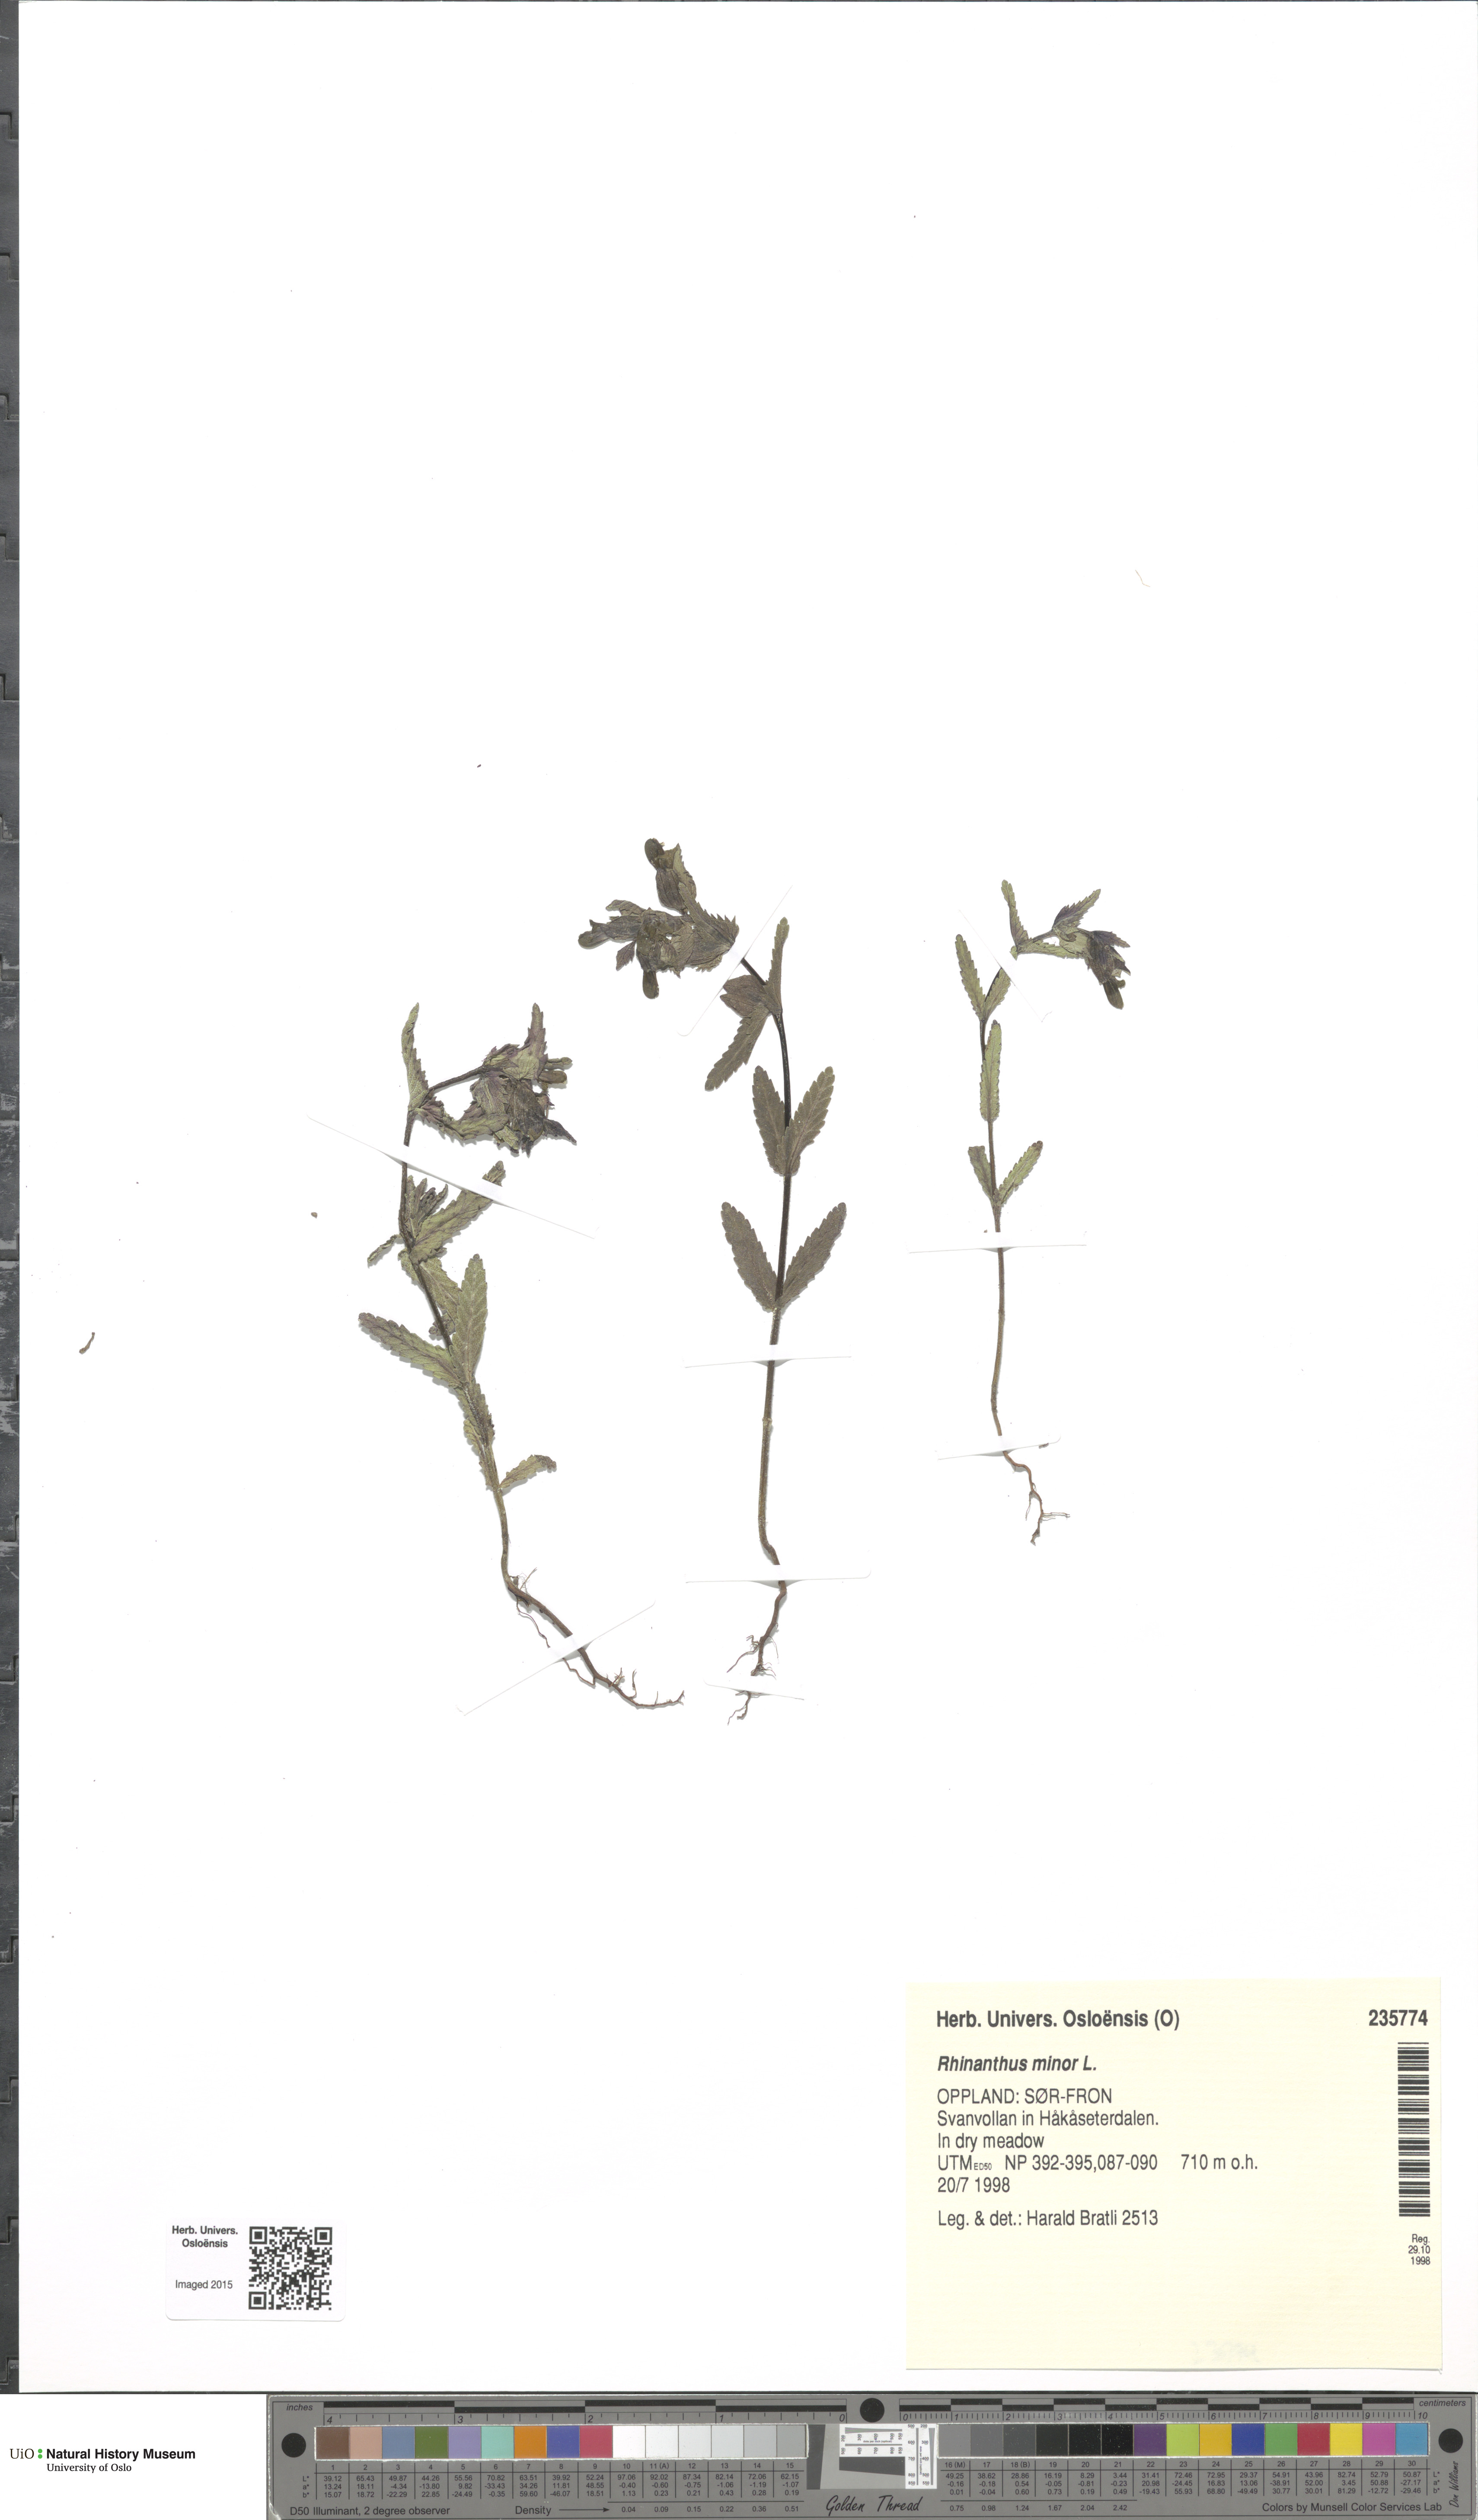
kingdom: Plantae
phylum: Tracheophyta
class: Magnoliopsida
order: Lamiales
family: Orobanchaceae
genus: Rhinanthus
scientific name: Rhinanthus minor
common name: Yellow-rattle
